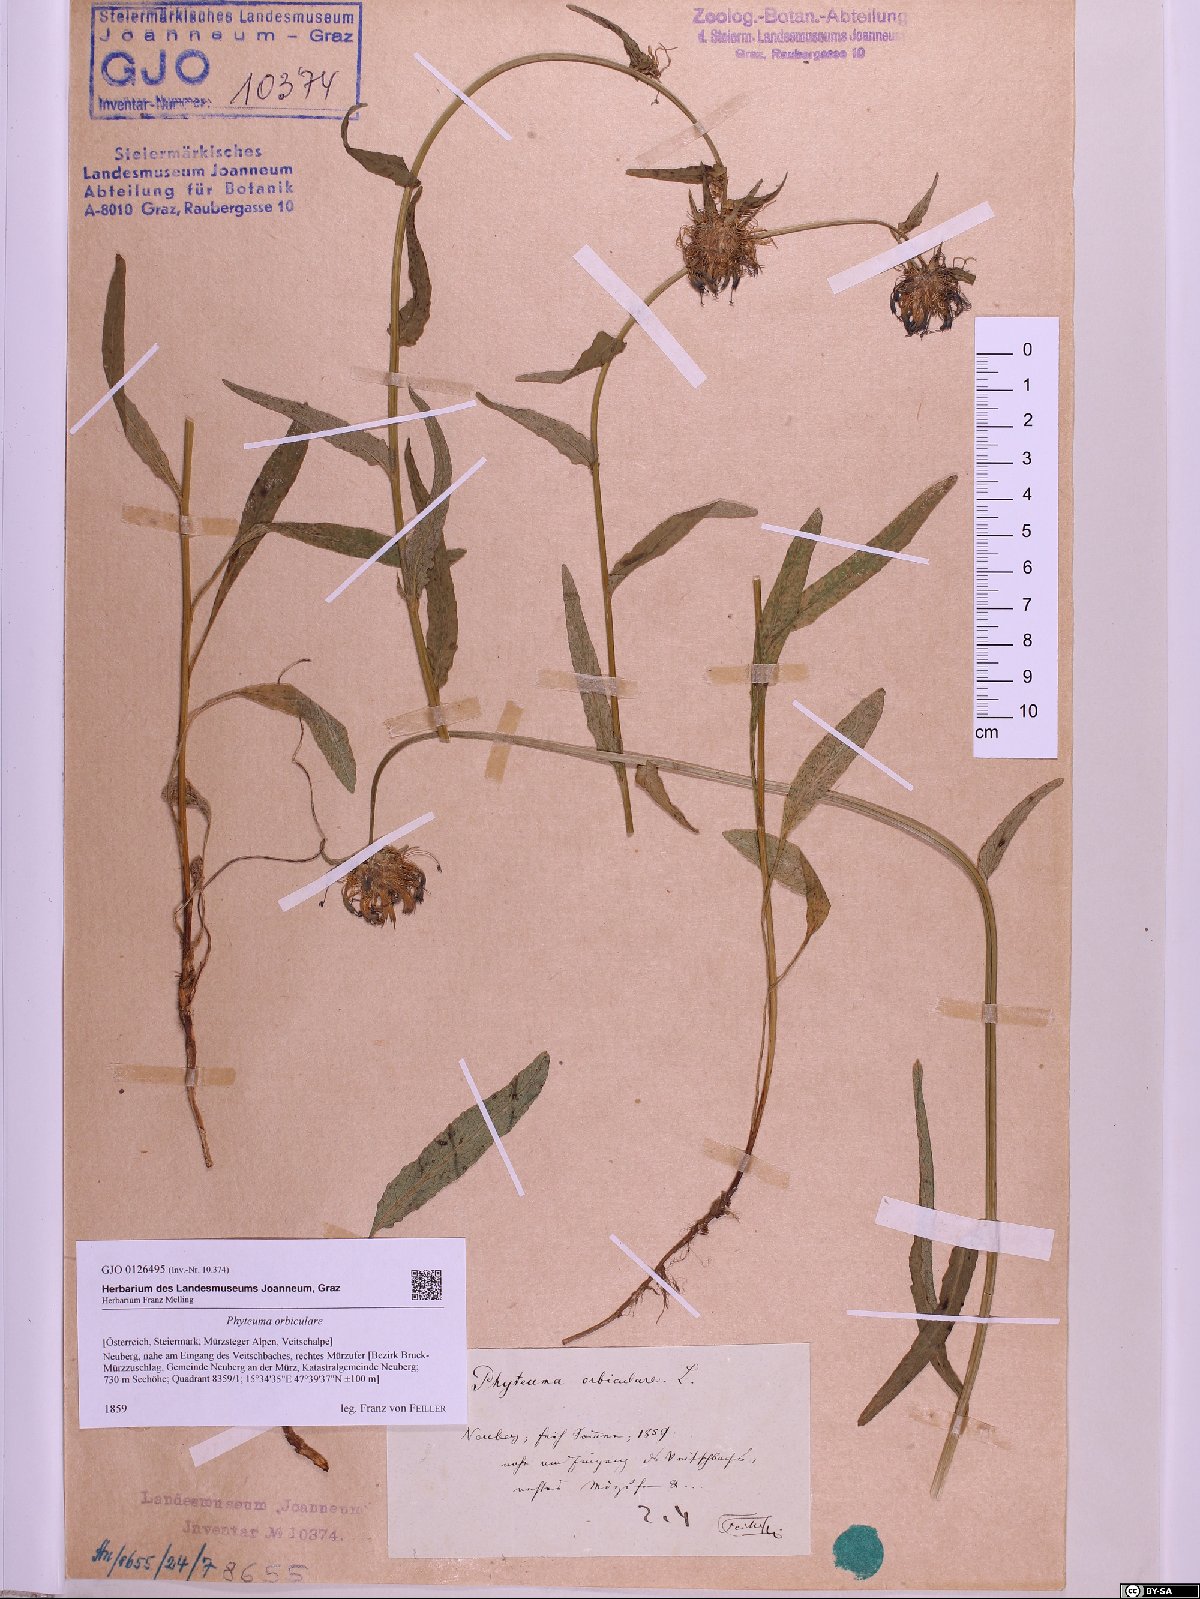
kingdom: Plantae
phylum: Tracheophyta
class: Magnoliopsida
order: Asterales
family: Campanulaceae
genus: Phyteuma
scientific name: Phyteuma orbiculare
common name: Round-headed rampion
